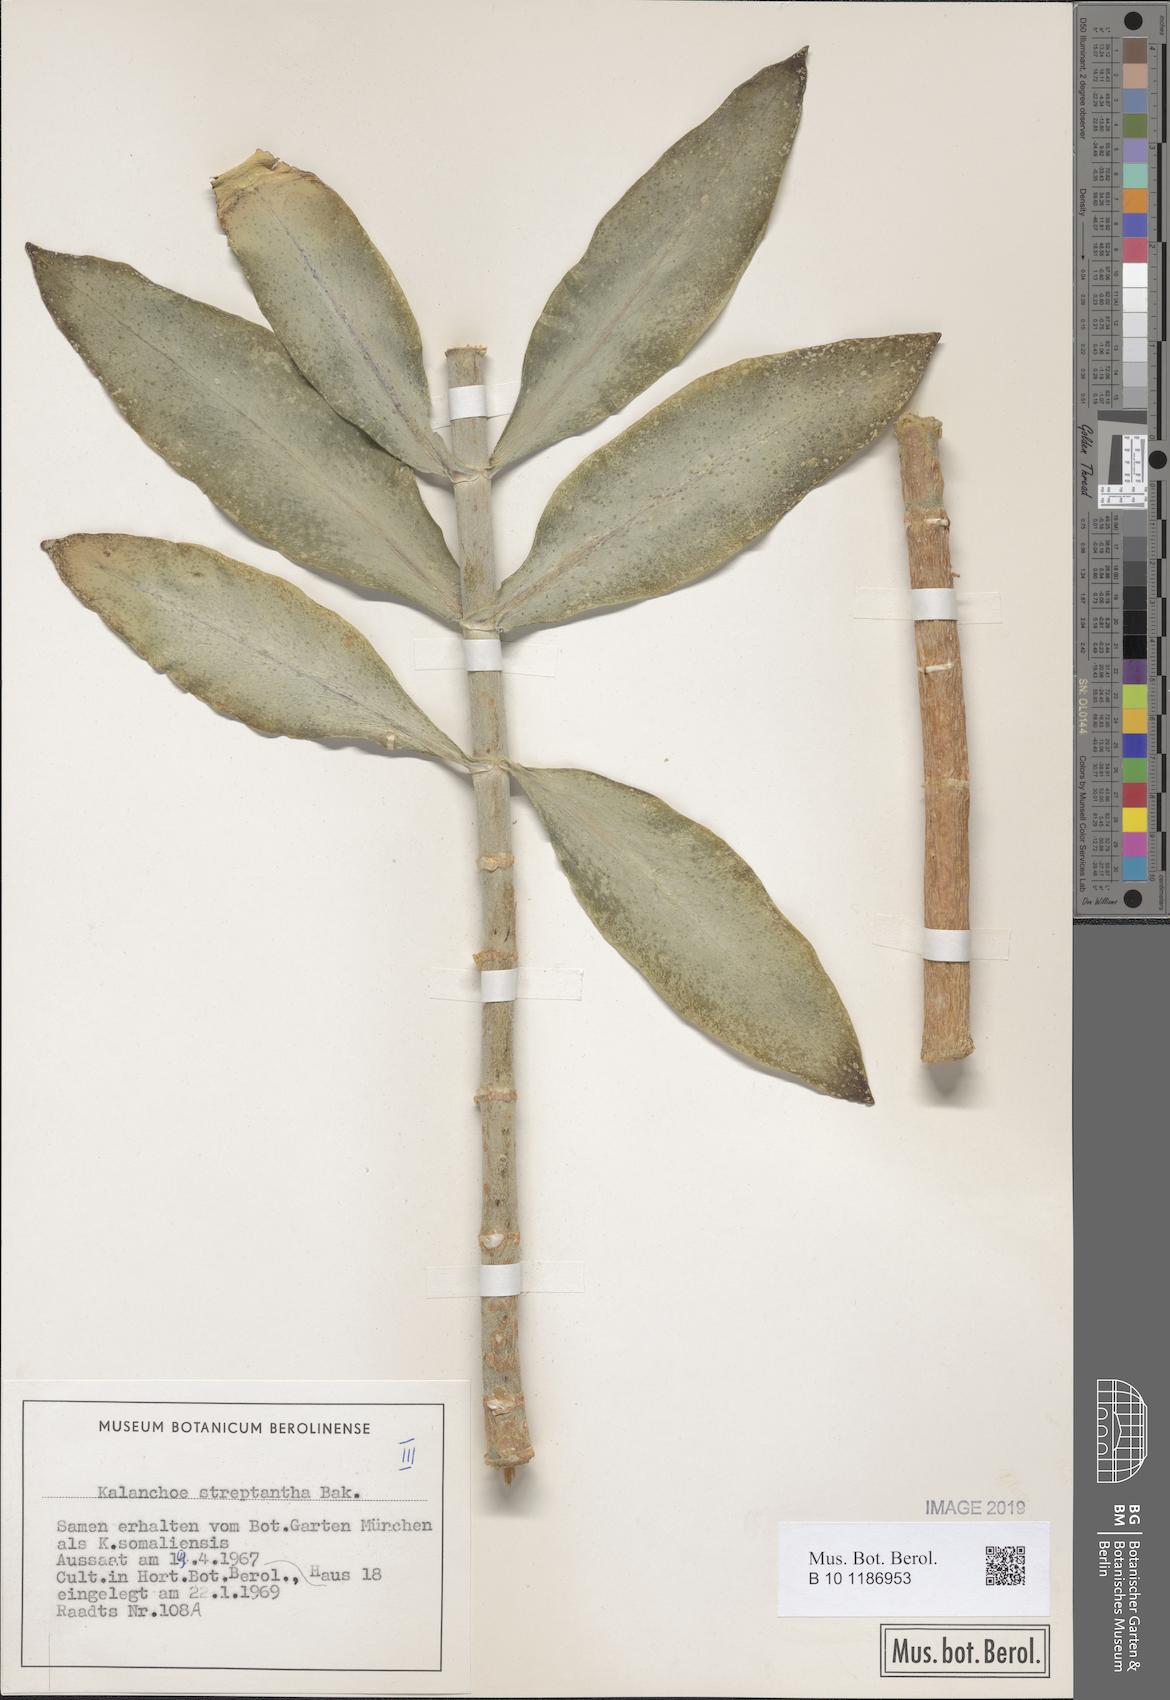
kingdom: Plantae
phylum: Tracheophyta
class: Magnoliopsida
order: Saxifragales
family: Crassulaceae
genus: Kalanchoe
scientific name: Kalanchoe streptantha
